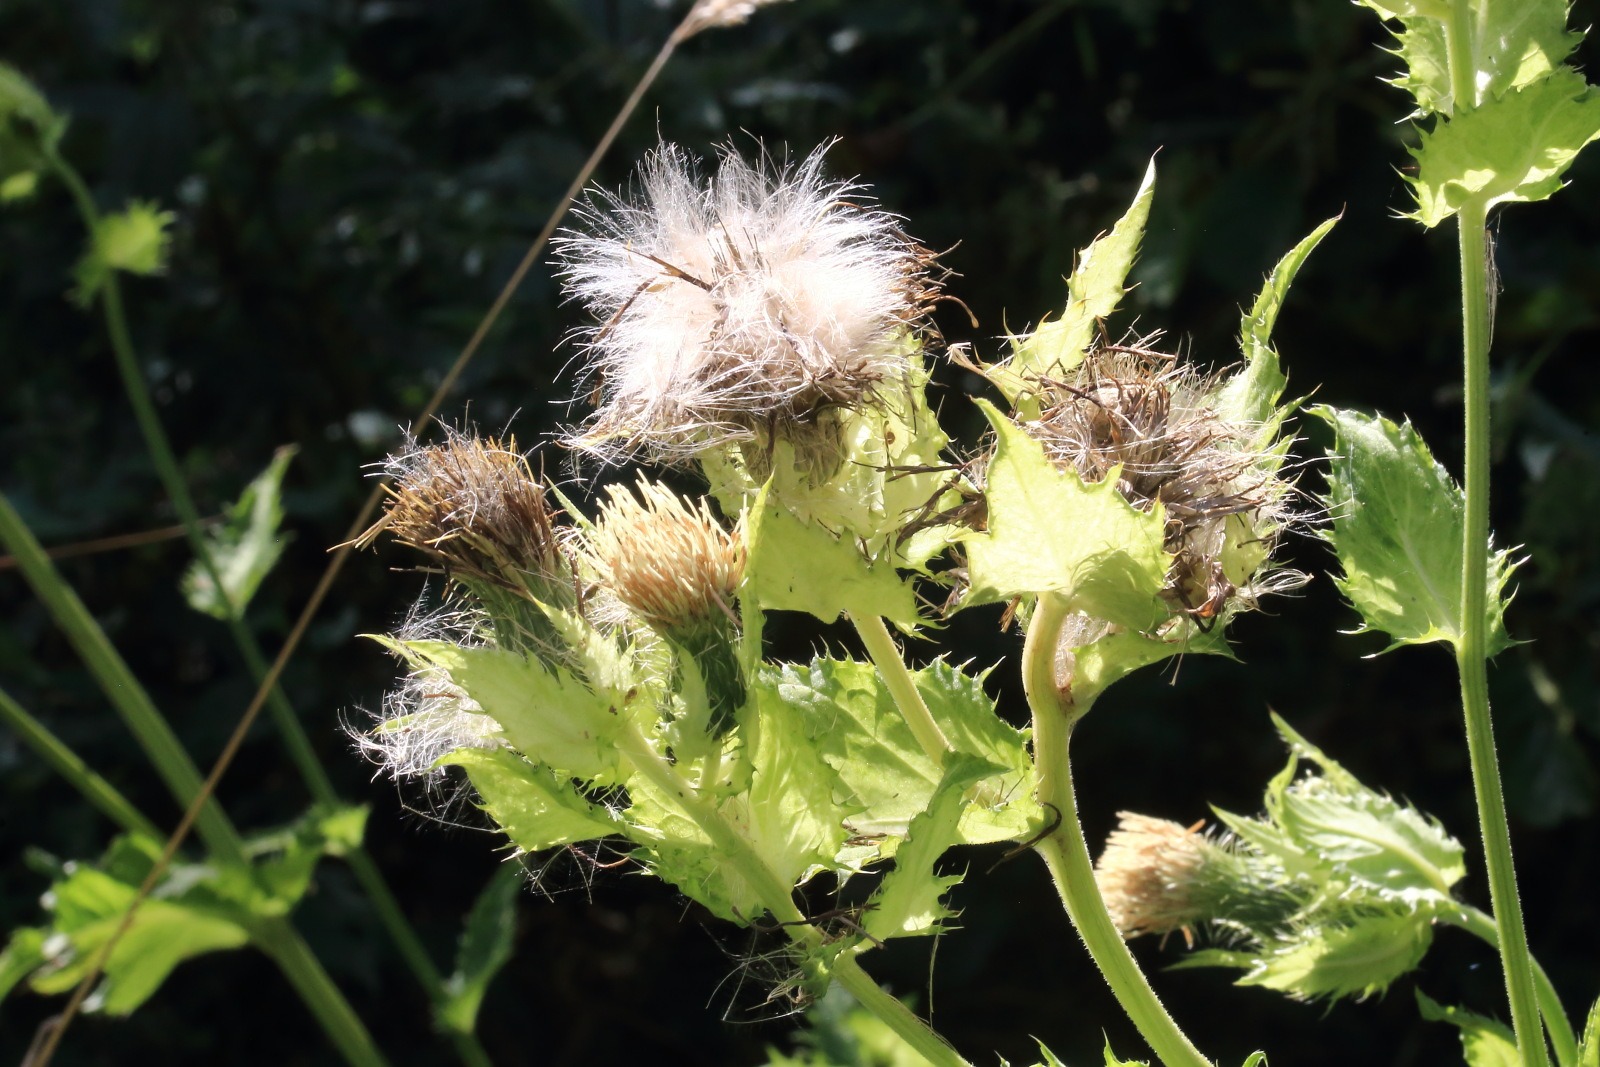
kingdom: Plantae
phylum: Tracheophyta
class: Magnoliopsida
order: Asterales
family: Asteraceae
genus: Cirsium
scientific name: Cirsium oleraceum
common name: Kål-tidsel
